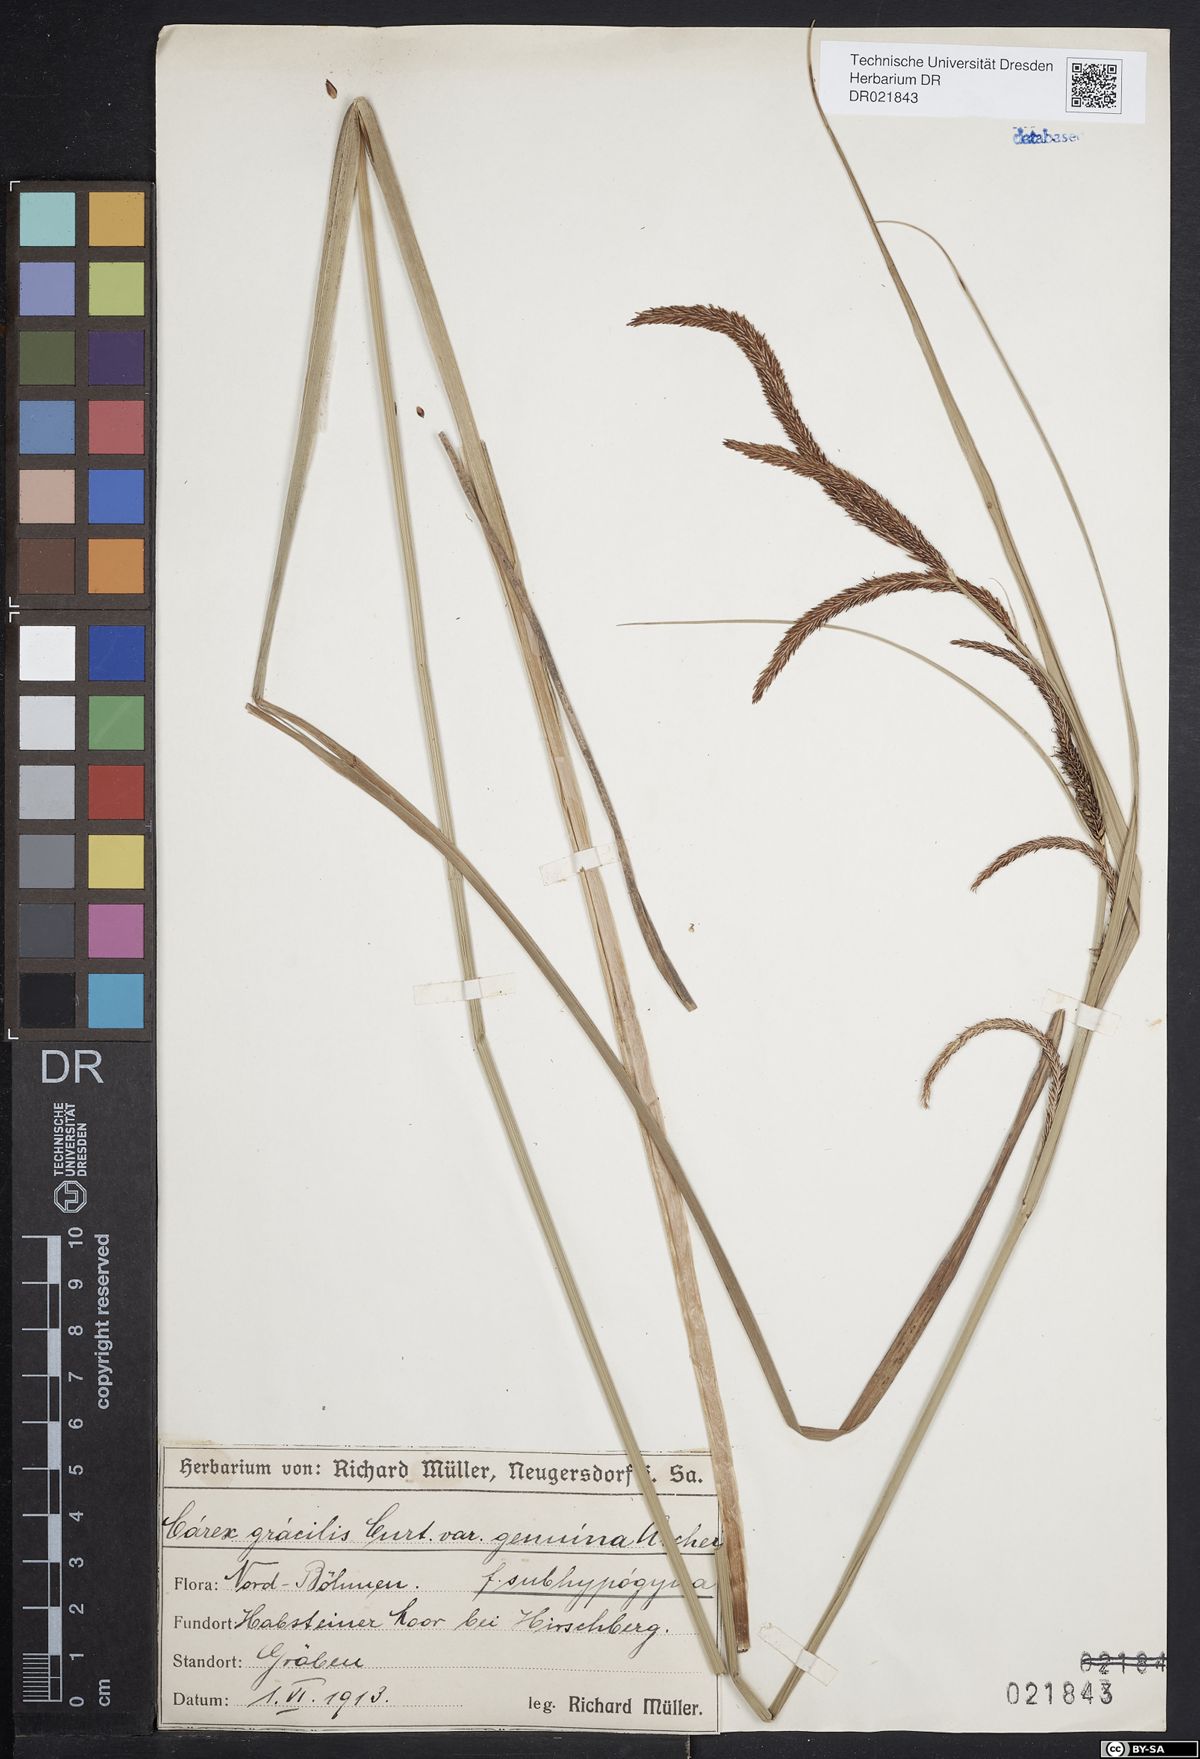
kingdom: Plantae
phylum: Tracheophyta
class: Liliopsida
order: Poales
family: Cyperaceae
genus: Carex
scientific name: Carex acuta
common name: Slender tufted-sedge
